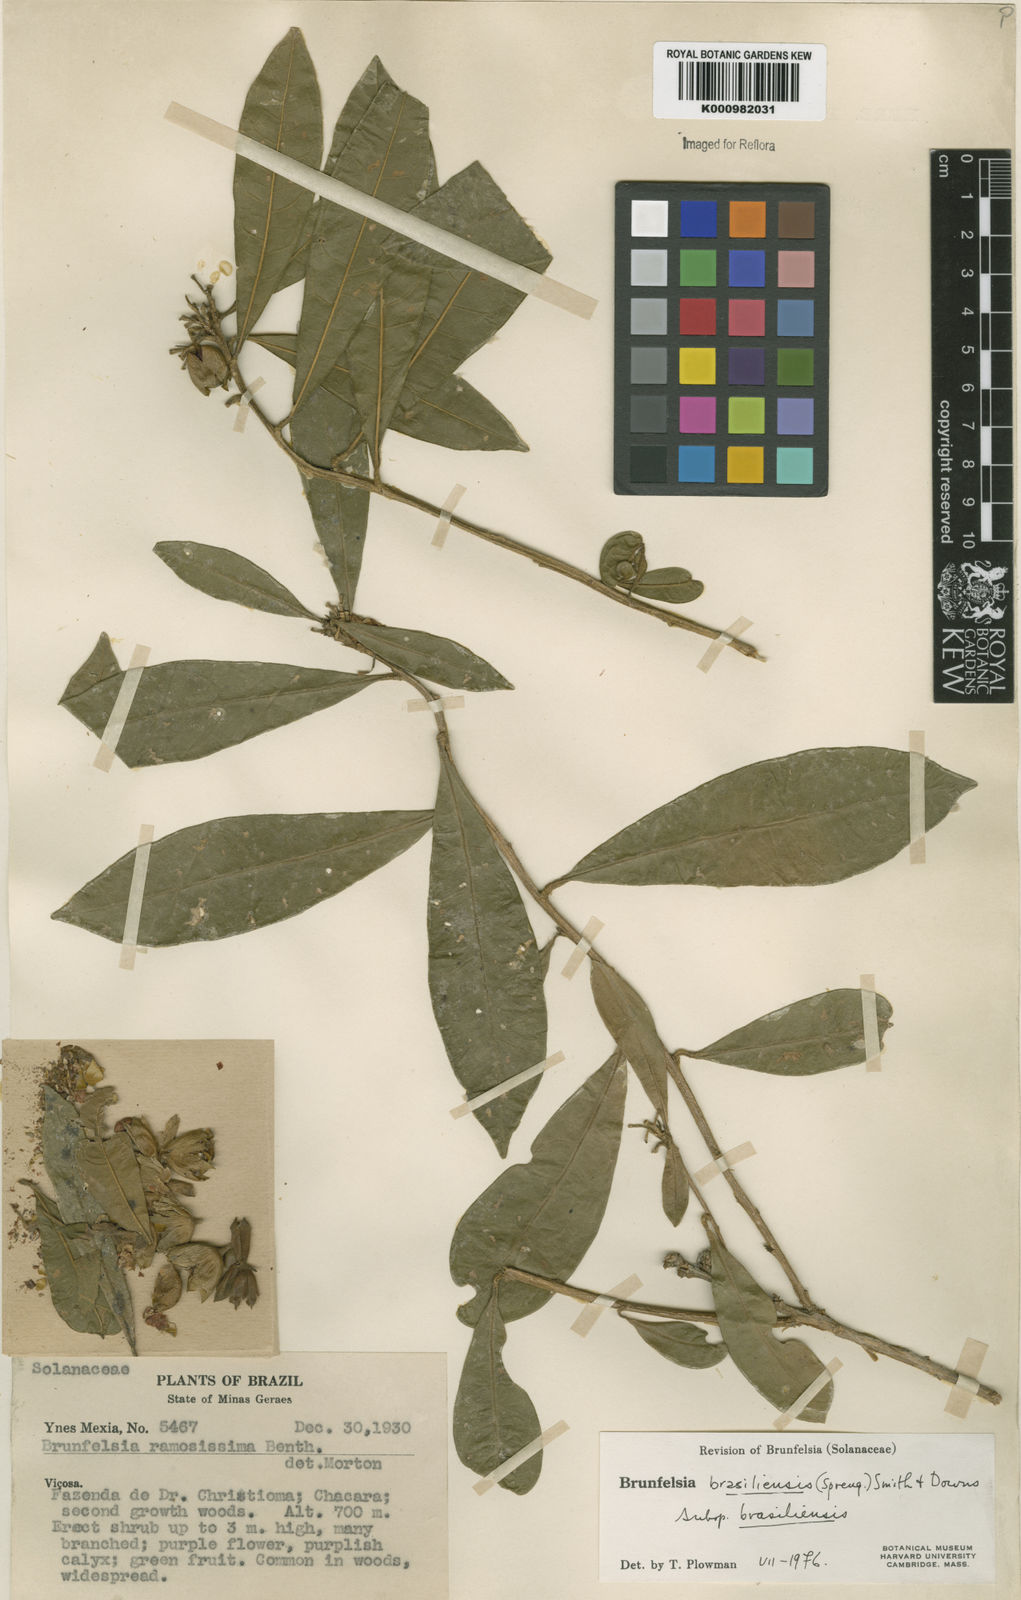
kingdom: Plantae
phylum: Tracheophyta
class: Magnoliopsida
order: Solanales
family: Solanaceae
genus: Brunfelsia
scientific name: Brunfelsia brasiliensis
